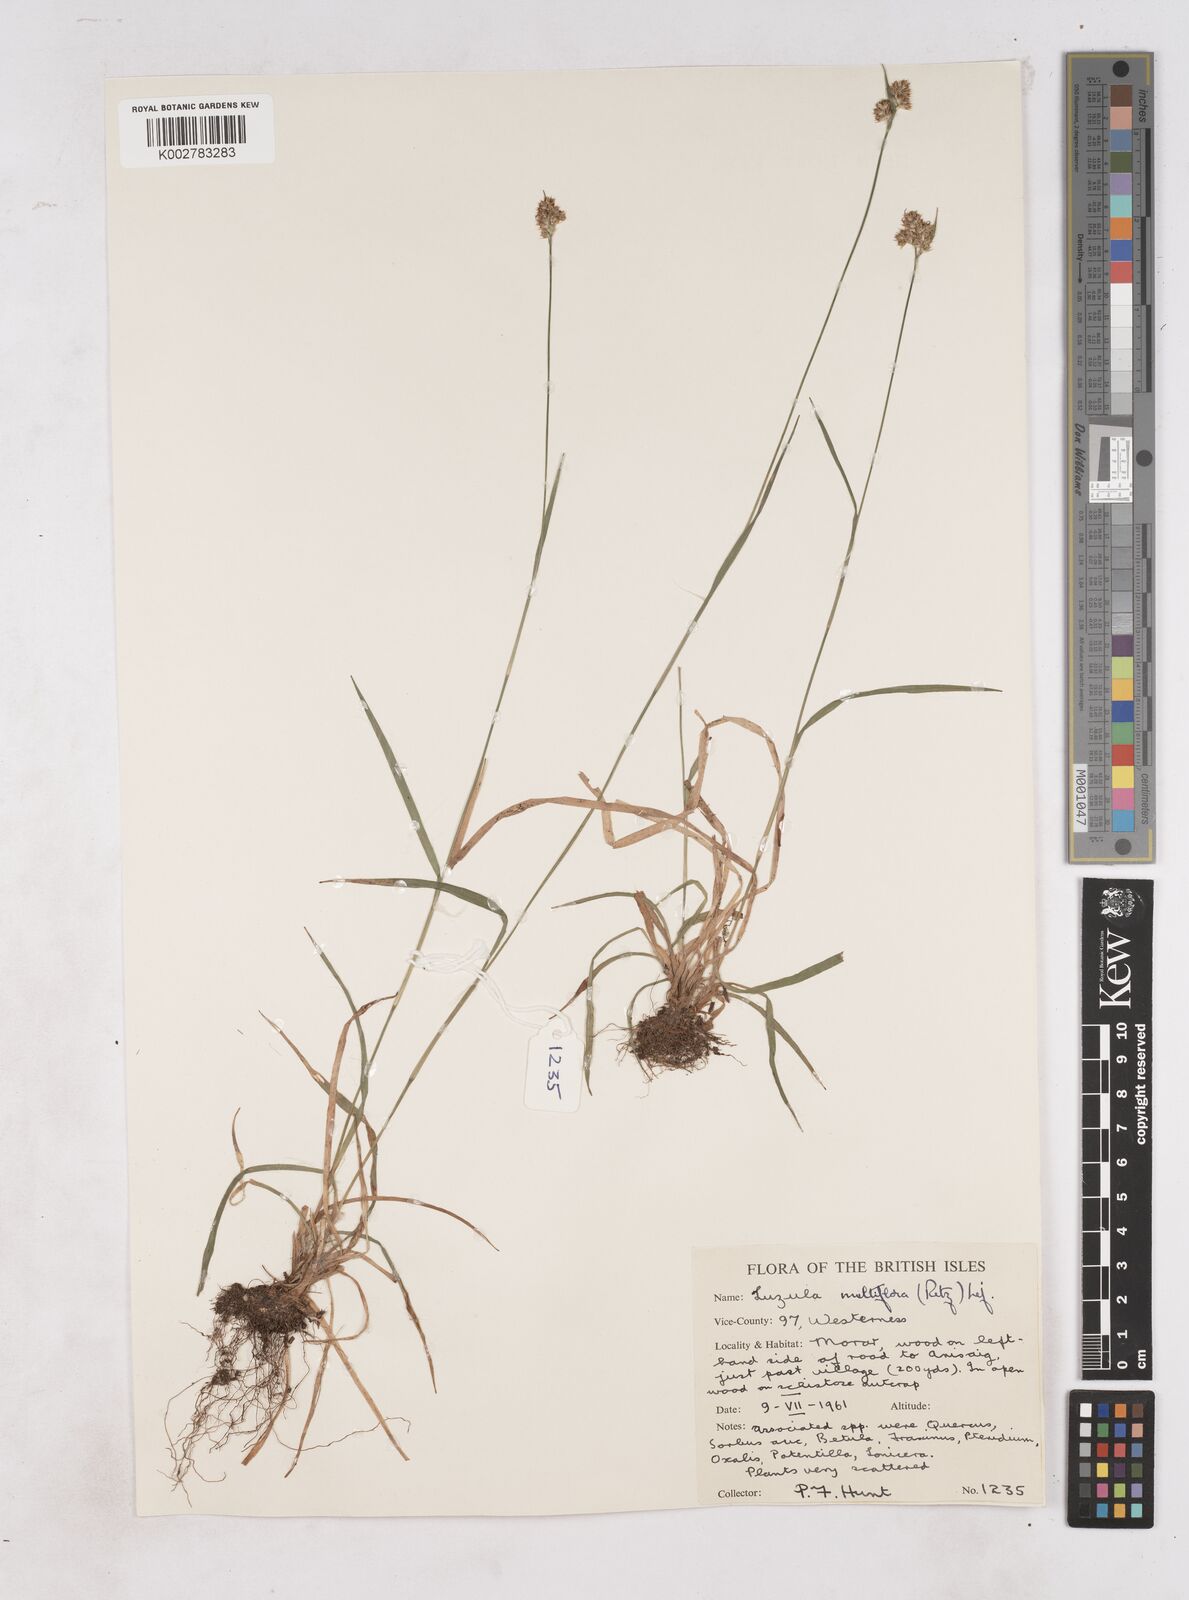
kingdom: Plantae
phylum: Tracheophyta
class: Liliopsida
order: Poales
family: Juncaceae
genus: Luzula
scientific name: Luzula multiflora
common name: Heath wood-rush
